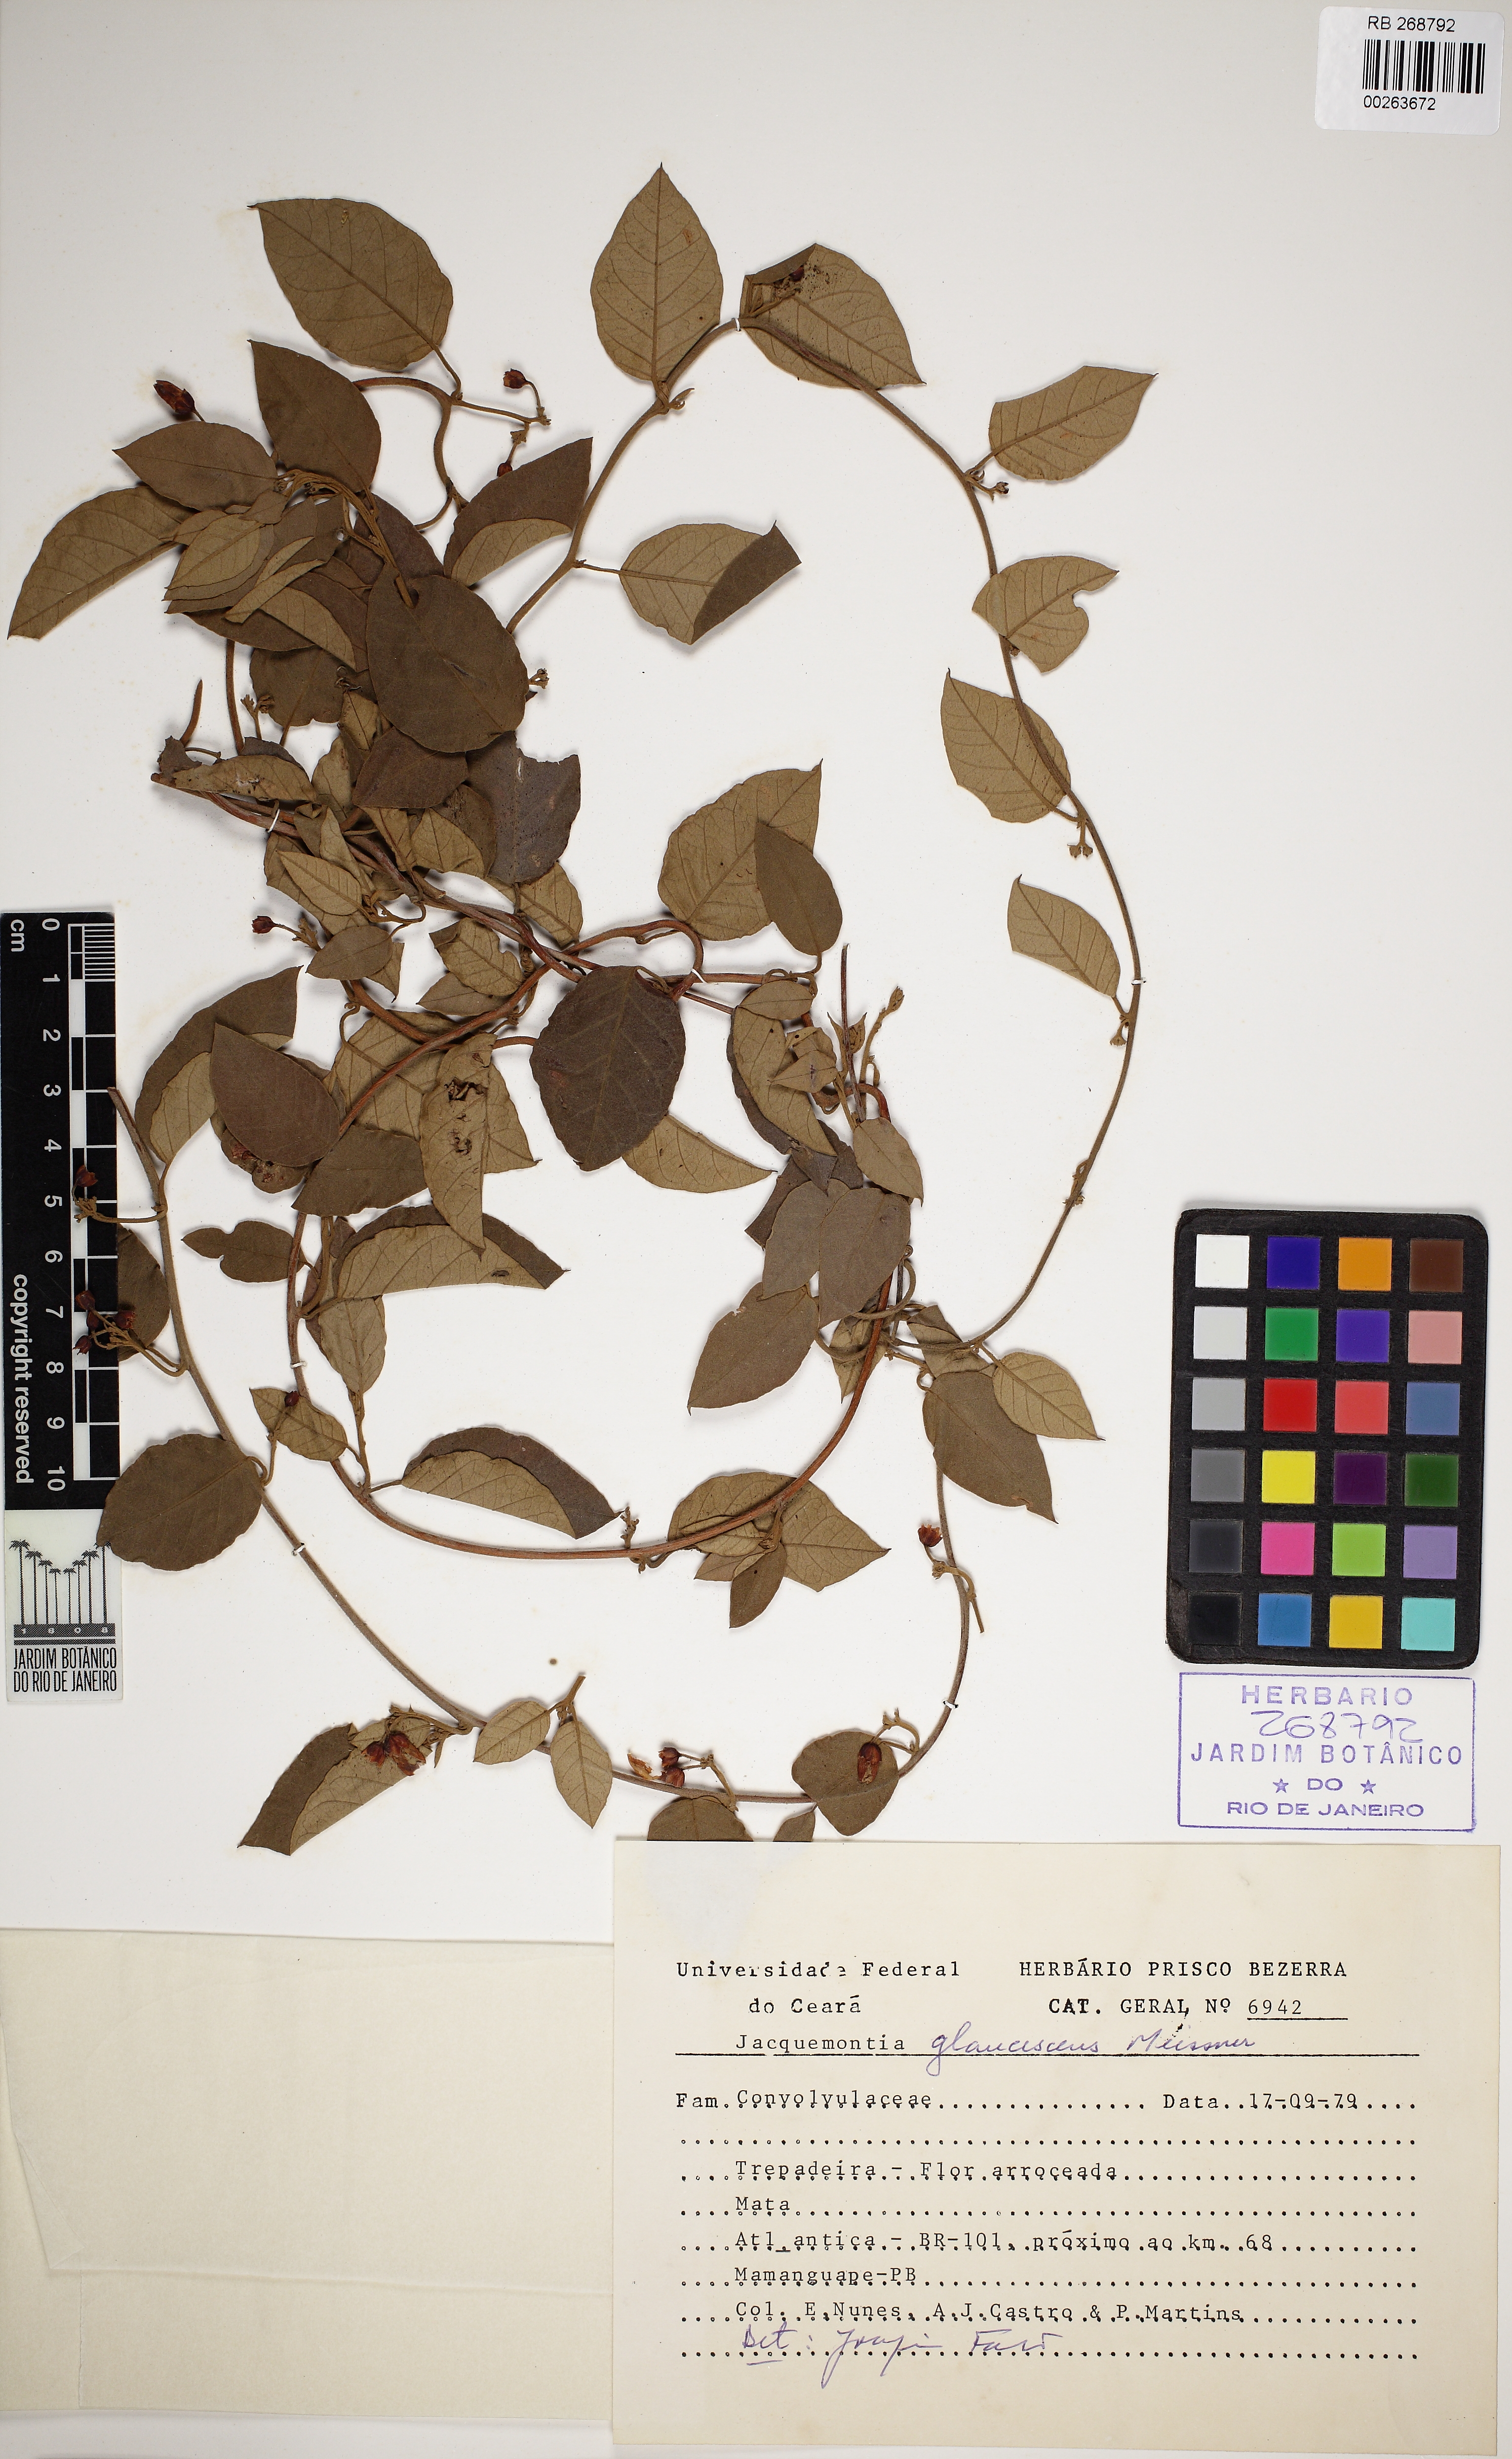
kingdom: Plantae
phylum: Tracheophyta
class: Magnoliopsida
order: Solanales
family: Convolvulaceae
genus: Jacquemontia
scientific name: Jacquemontia glaucescens
